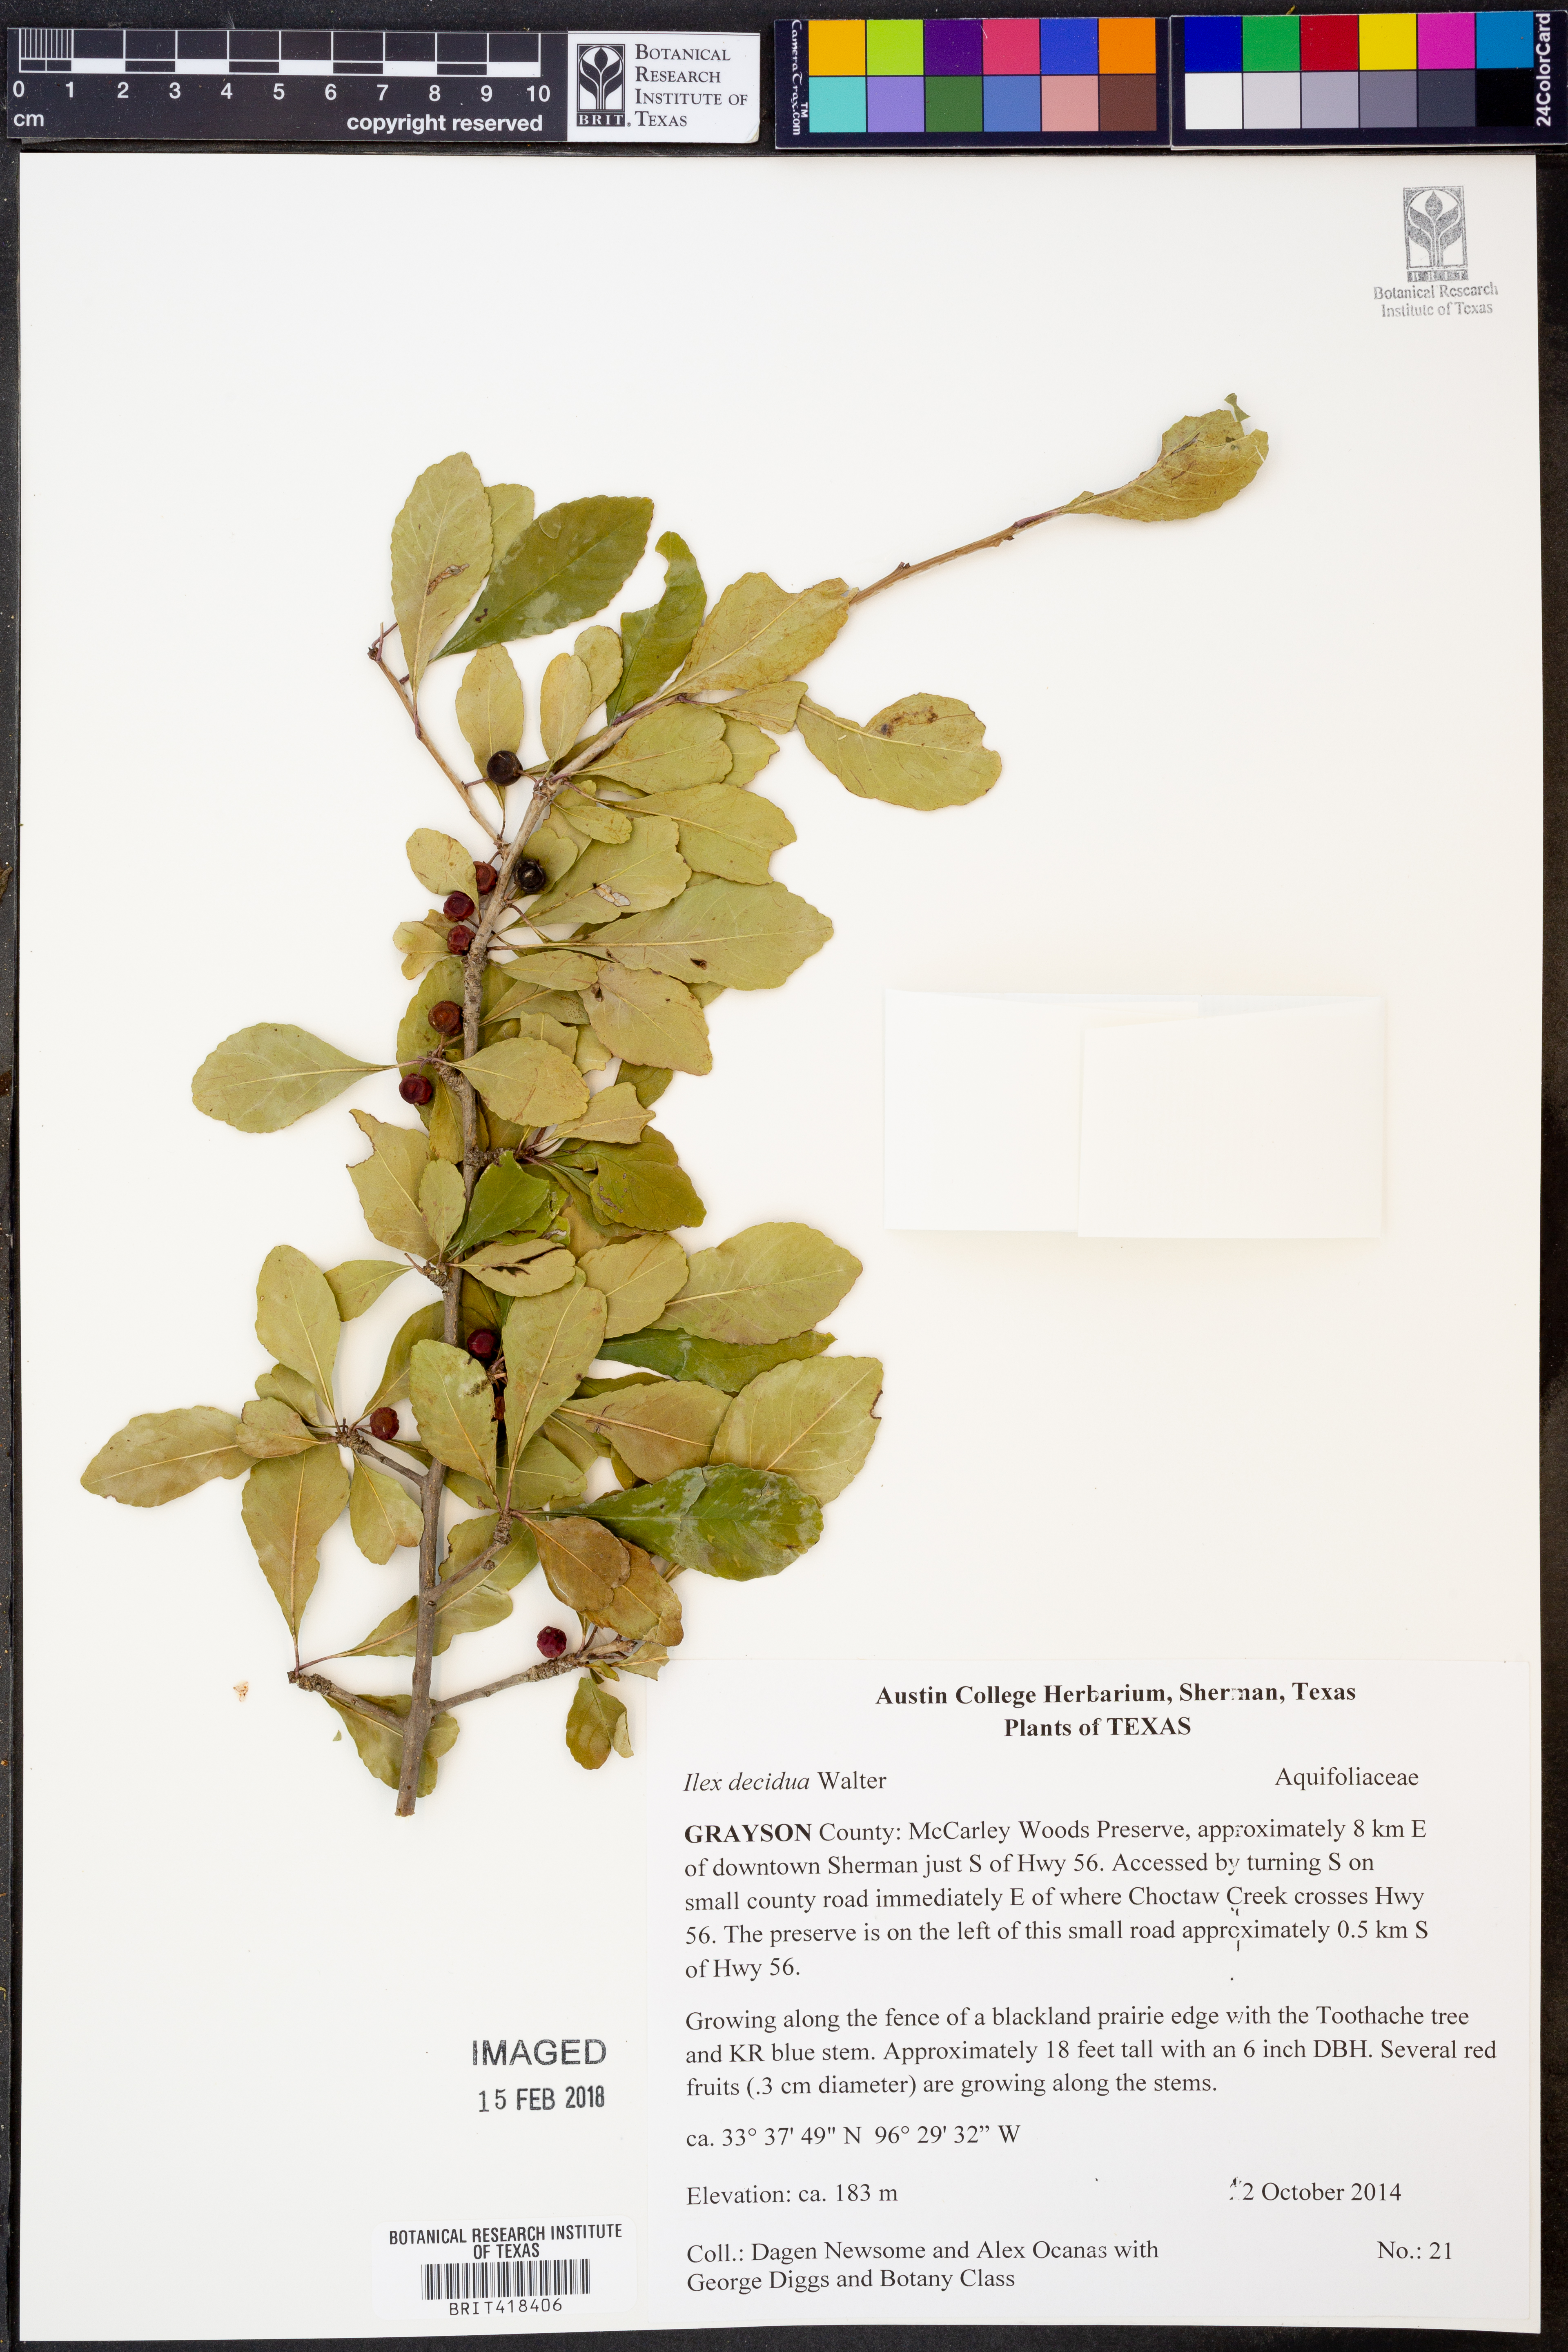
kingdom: Plantae
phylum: Tracheophyta
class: Magnoliopsida
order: Aquifoliales
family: Aquifoliaceae
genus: Ilex
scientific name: Ilex decidua
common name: Possum-haw
